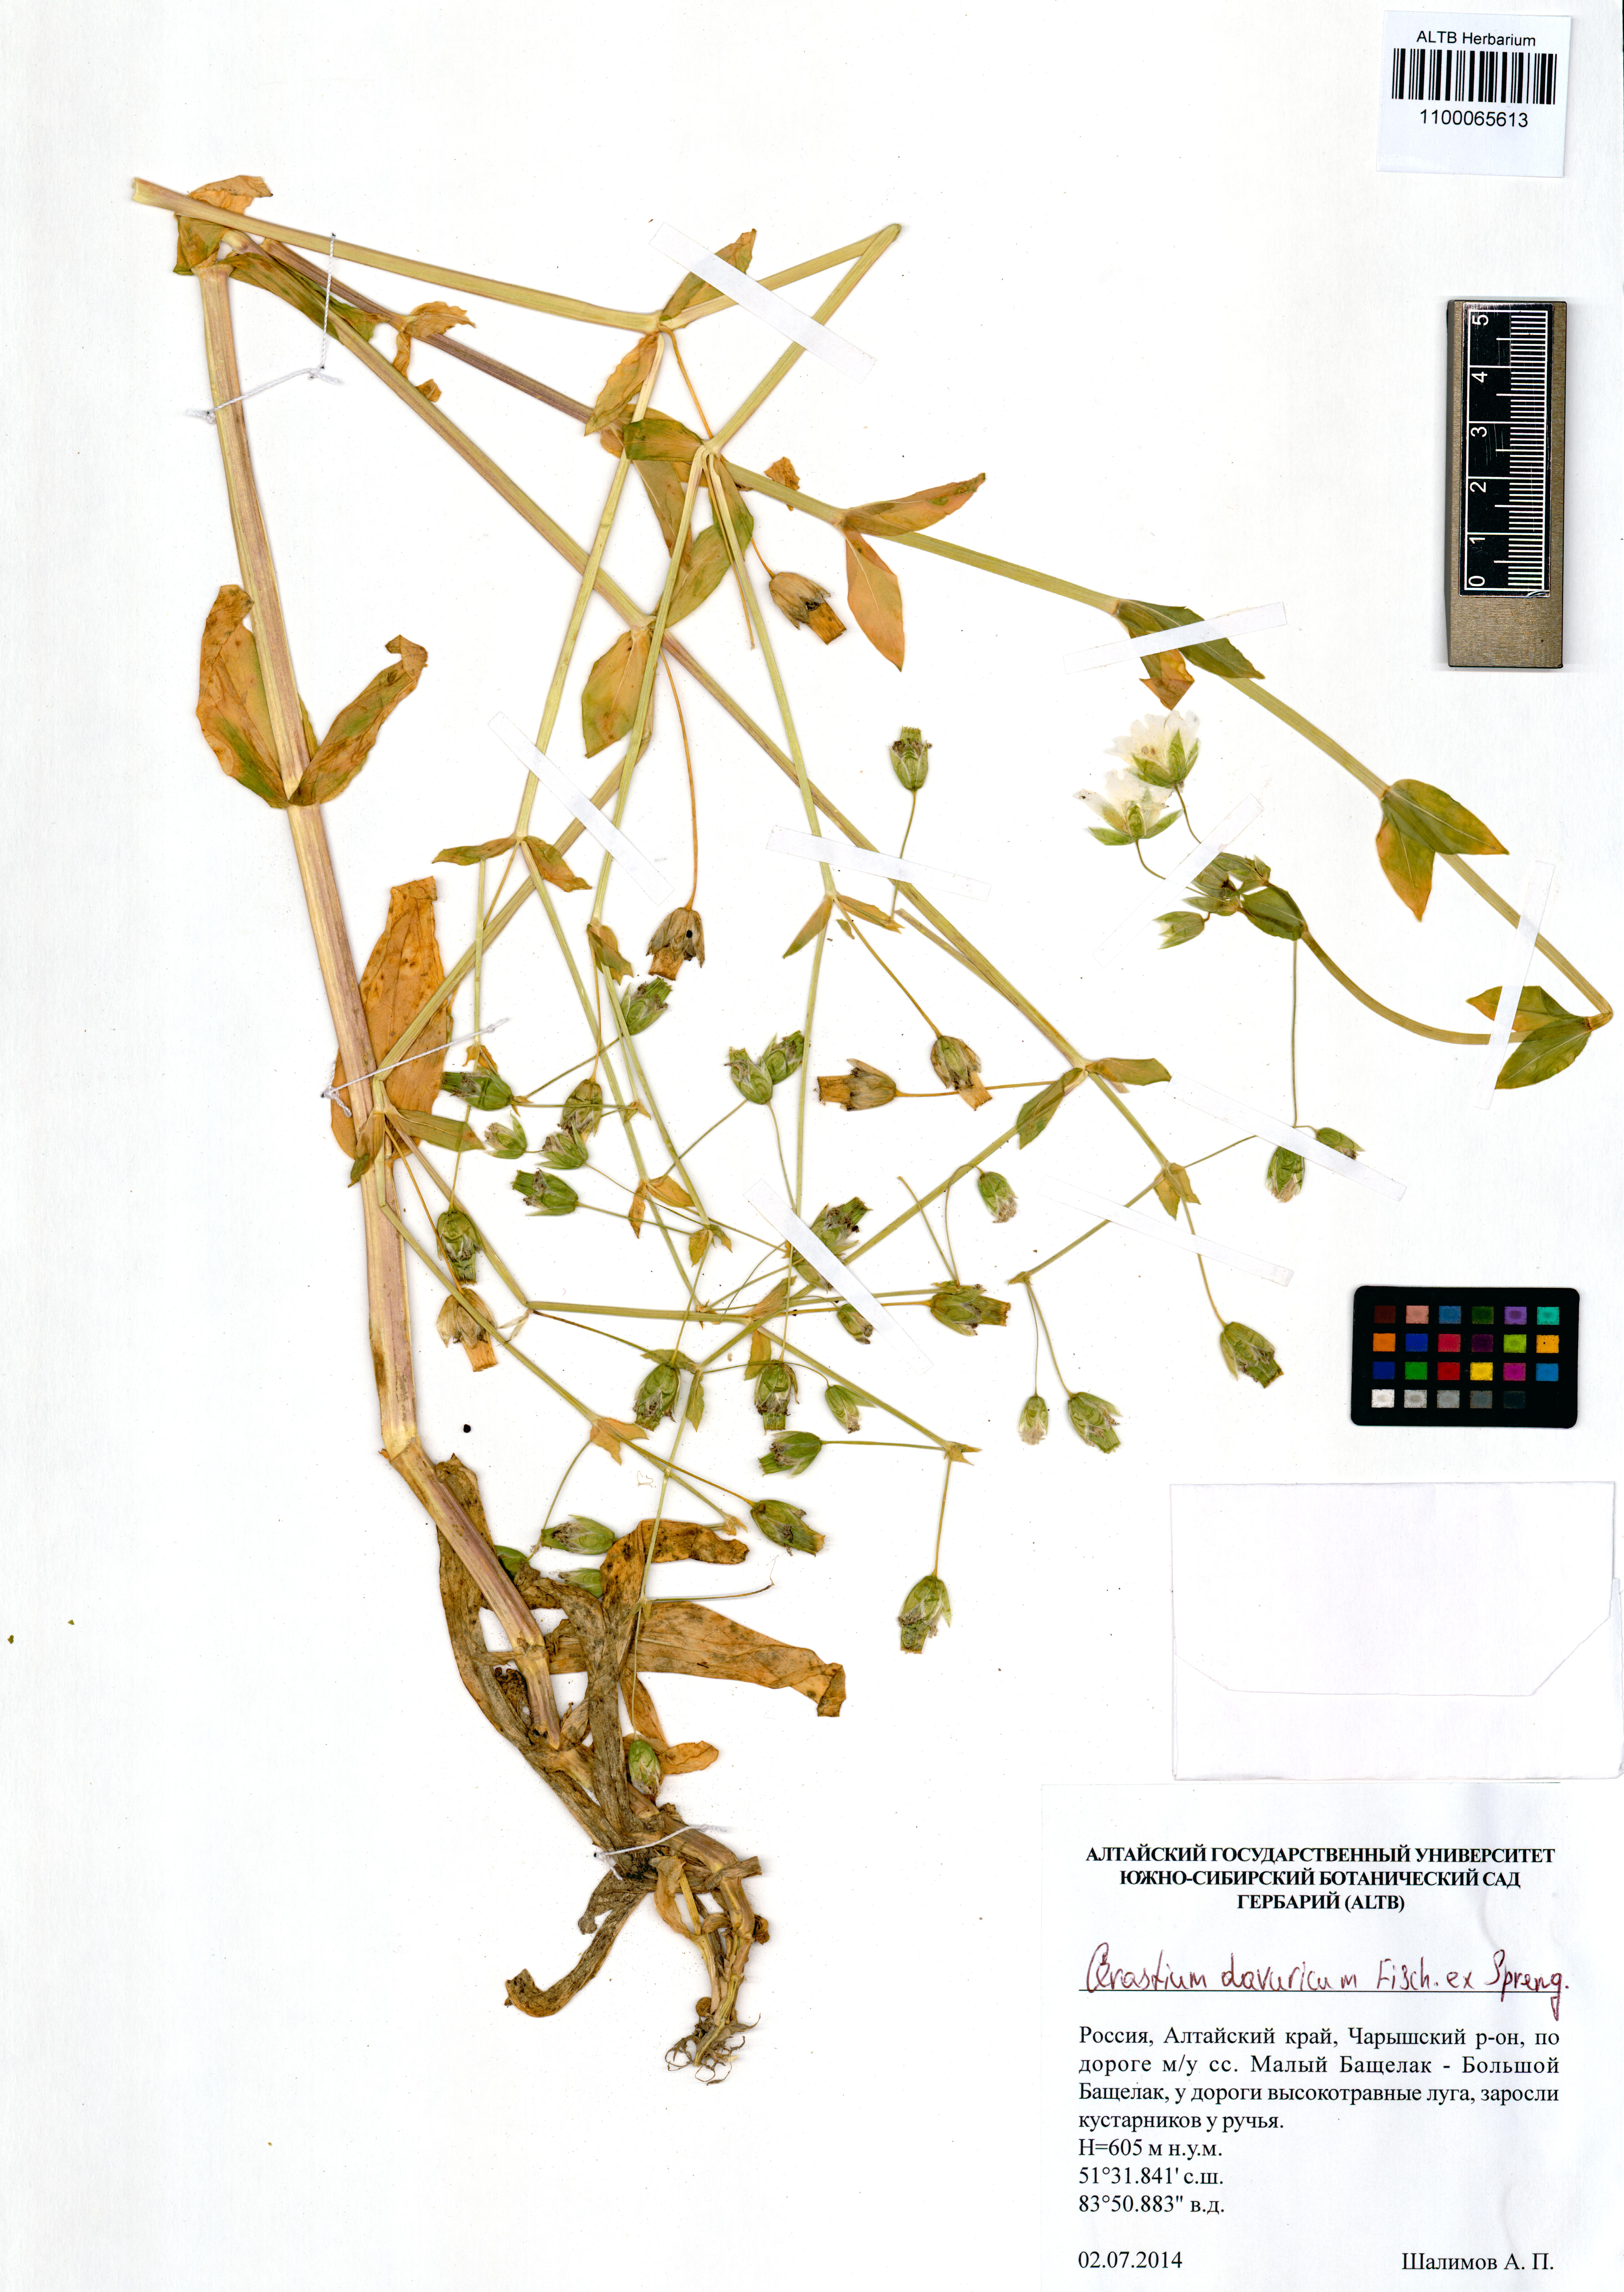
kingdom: Plantae
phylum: Tracheophyta
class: Magnoliopsida
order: Caryophyllales
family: Caryophyllaceae
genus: Dichodon
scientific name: Dichodon davuricum
